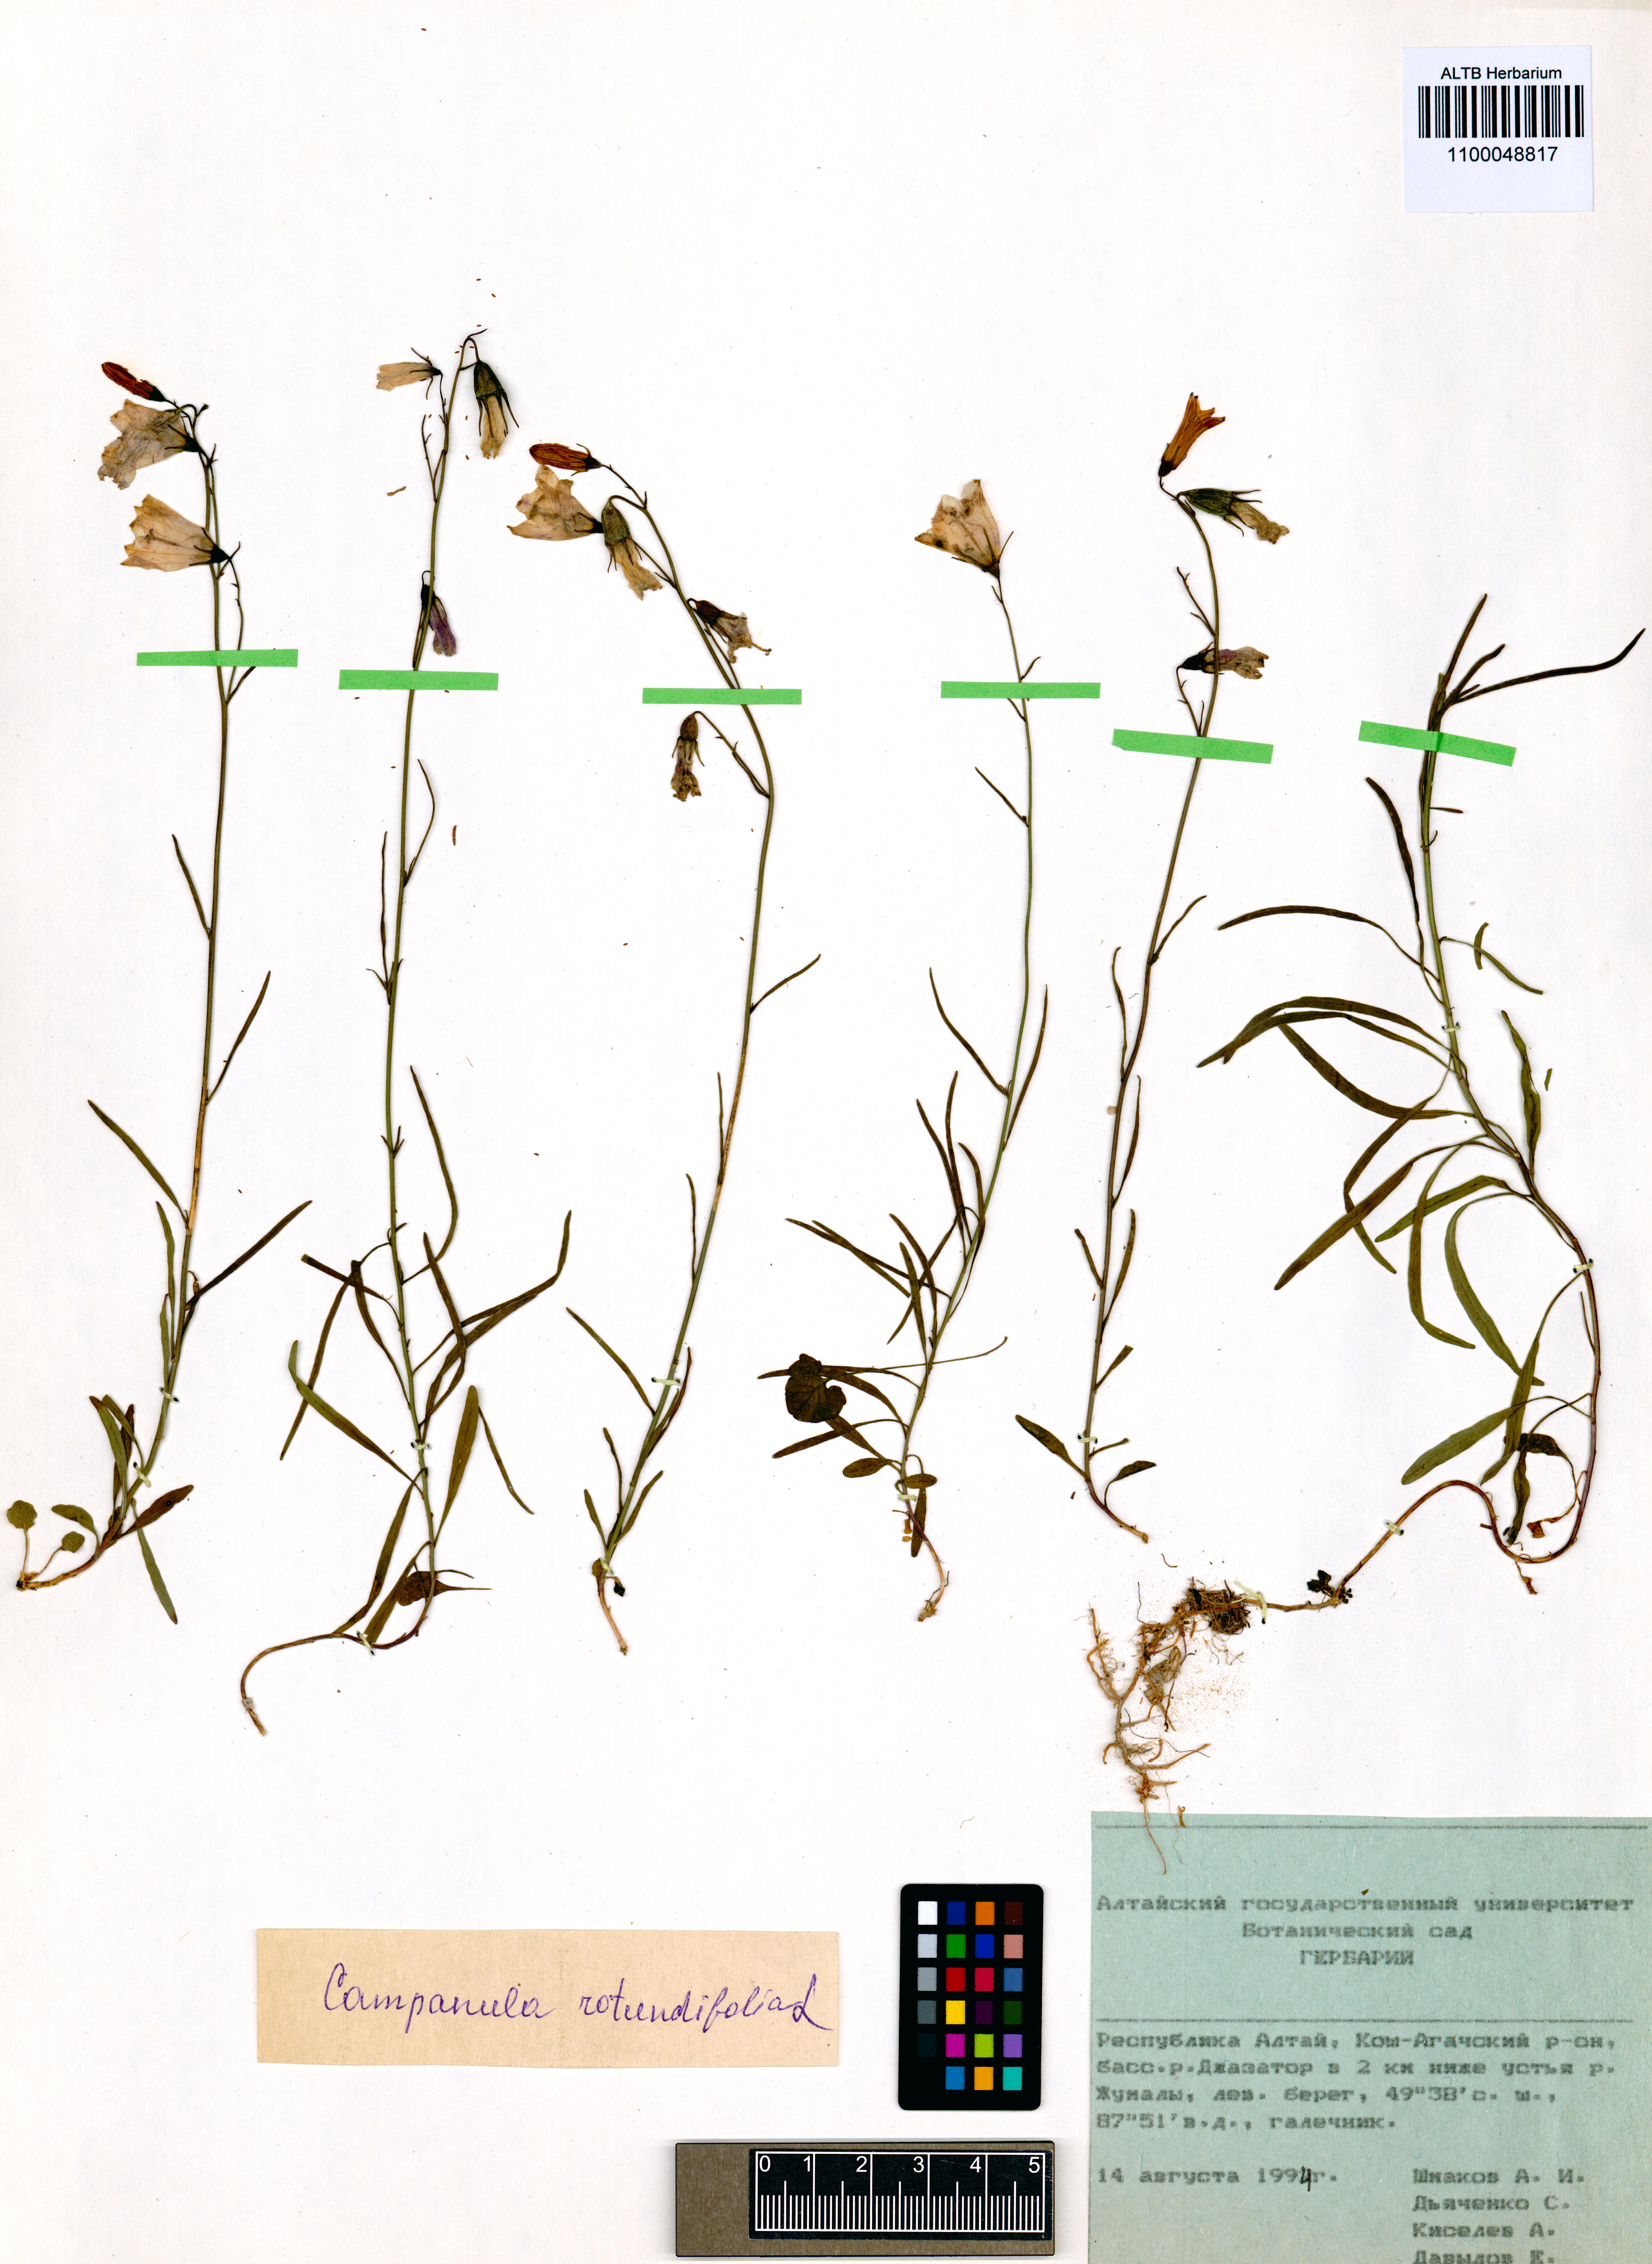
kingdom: Plantae
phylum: Tracheophyta
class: Magnoliopsida
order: Asterales
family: Campanulaceae
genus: Campanula
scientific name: Campanula rotundifolia
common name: Harebell
